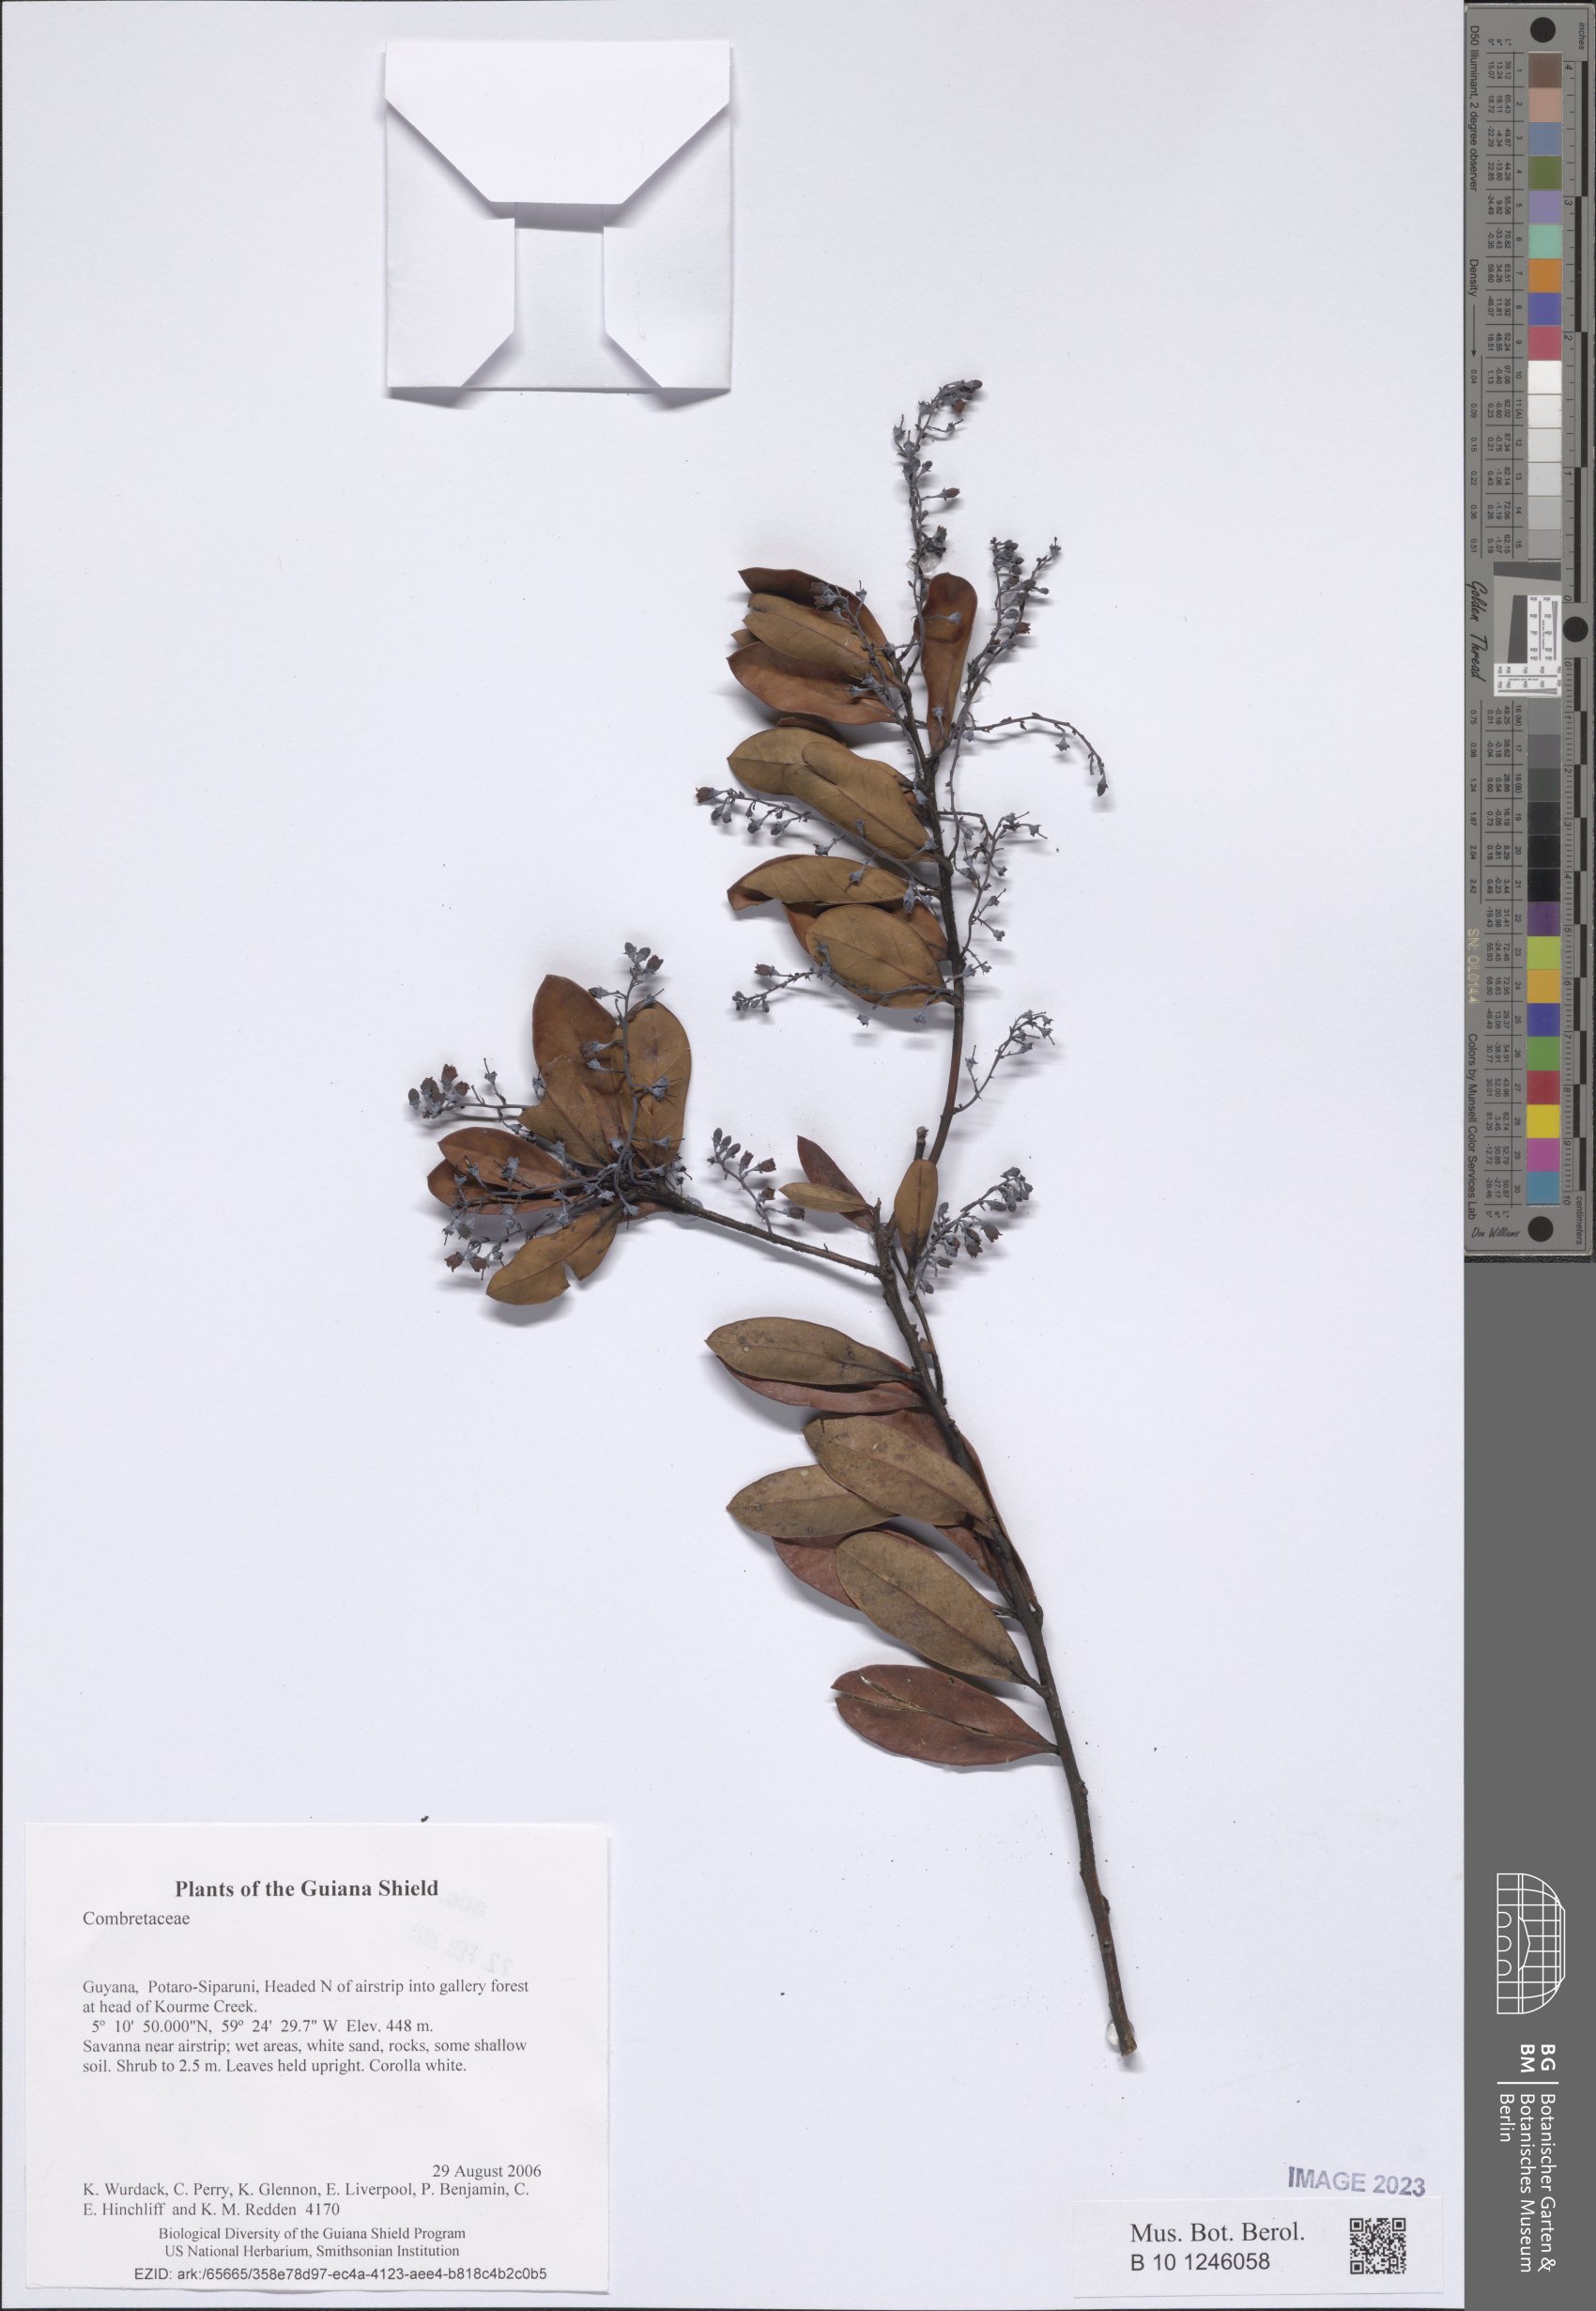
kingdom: Plantae
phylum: Tracheophyta
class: Magnoliopsida
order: Myrtales
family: Combretaceae
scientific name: Combretaceae
